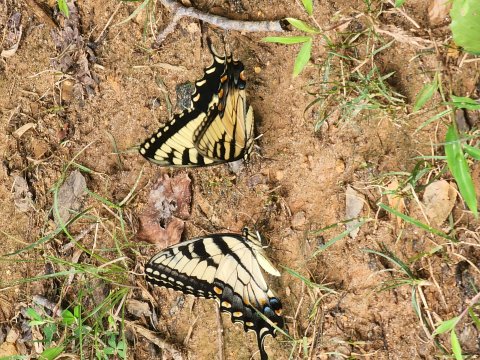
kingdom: Animalia
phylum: Arthropoda
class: Insecta
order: Lepidoptera
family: Papilionidae
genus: Pterourus
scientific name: Pterourus glaucus
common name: Eastern Tiger Swallowtail
